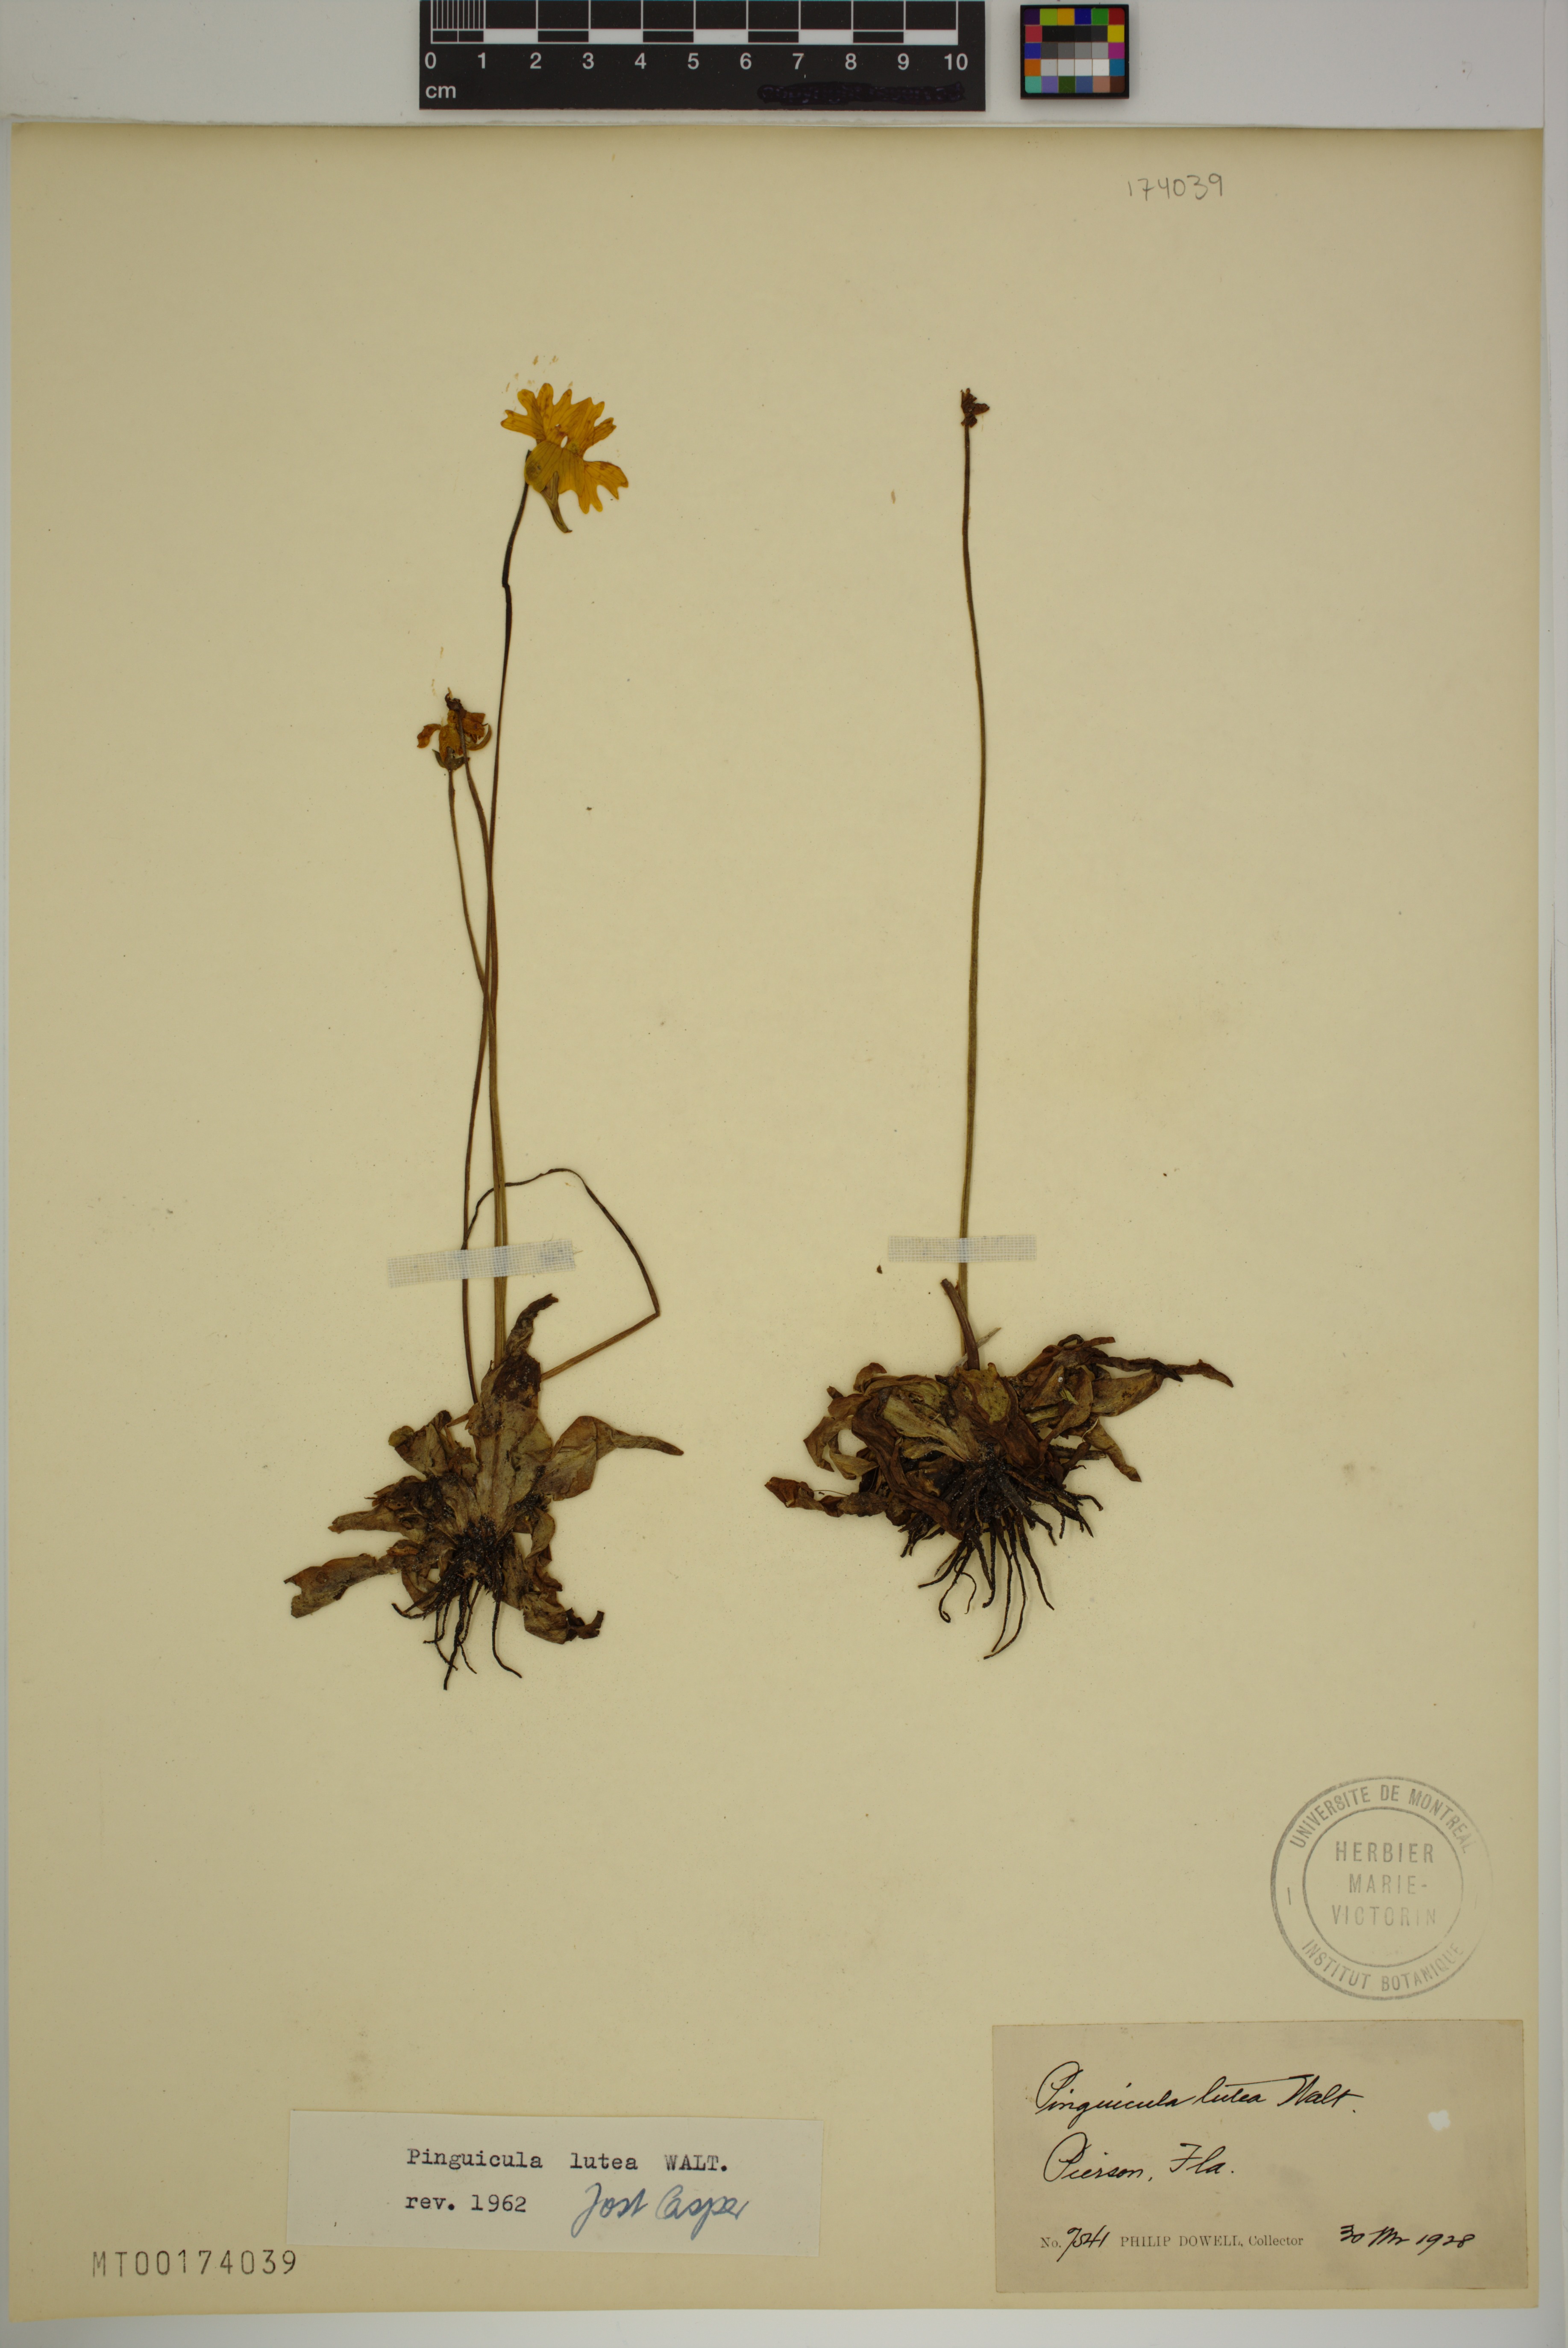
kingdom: Plantae
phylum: Tracheophyta
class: Magnoliopsida
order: Lamiales
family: Lentibulariaceae
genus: Pinguicula
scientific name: Pinguicula lutea
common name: Yellow butterwort
